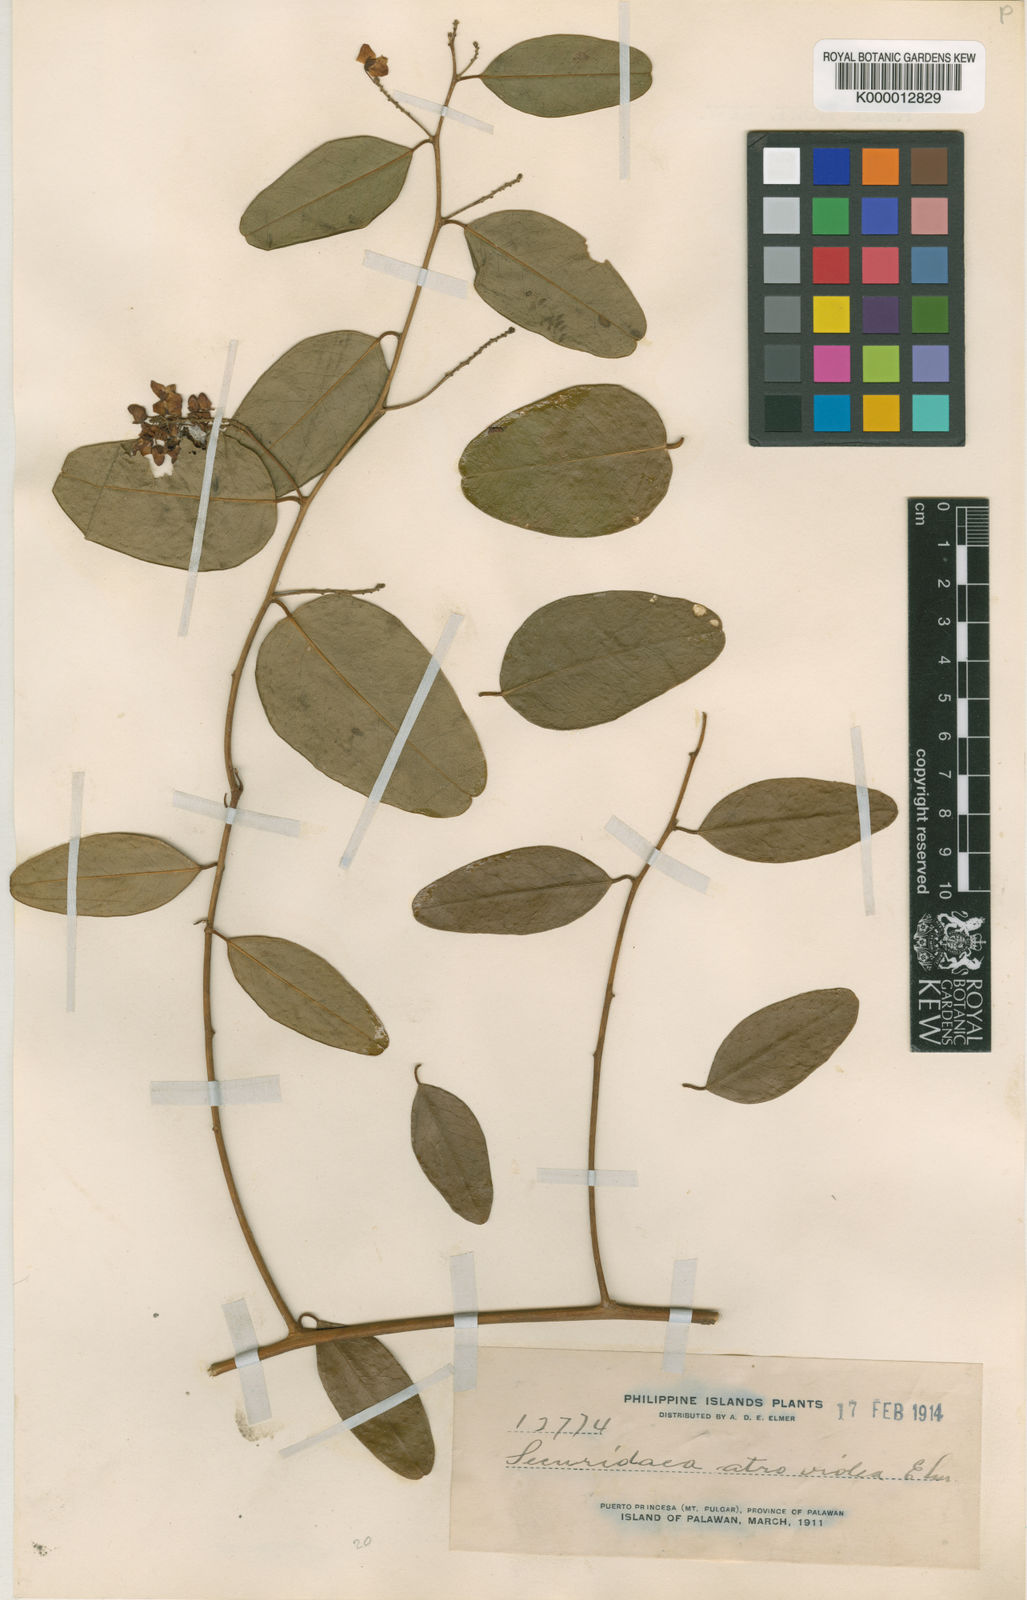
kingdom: Plantae
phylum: Tracheophyta
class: Magnoliopsida
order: Fabales
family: Polygalaceae
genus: Securidaca
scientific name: Securidaca atroviolacea
